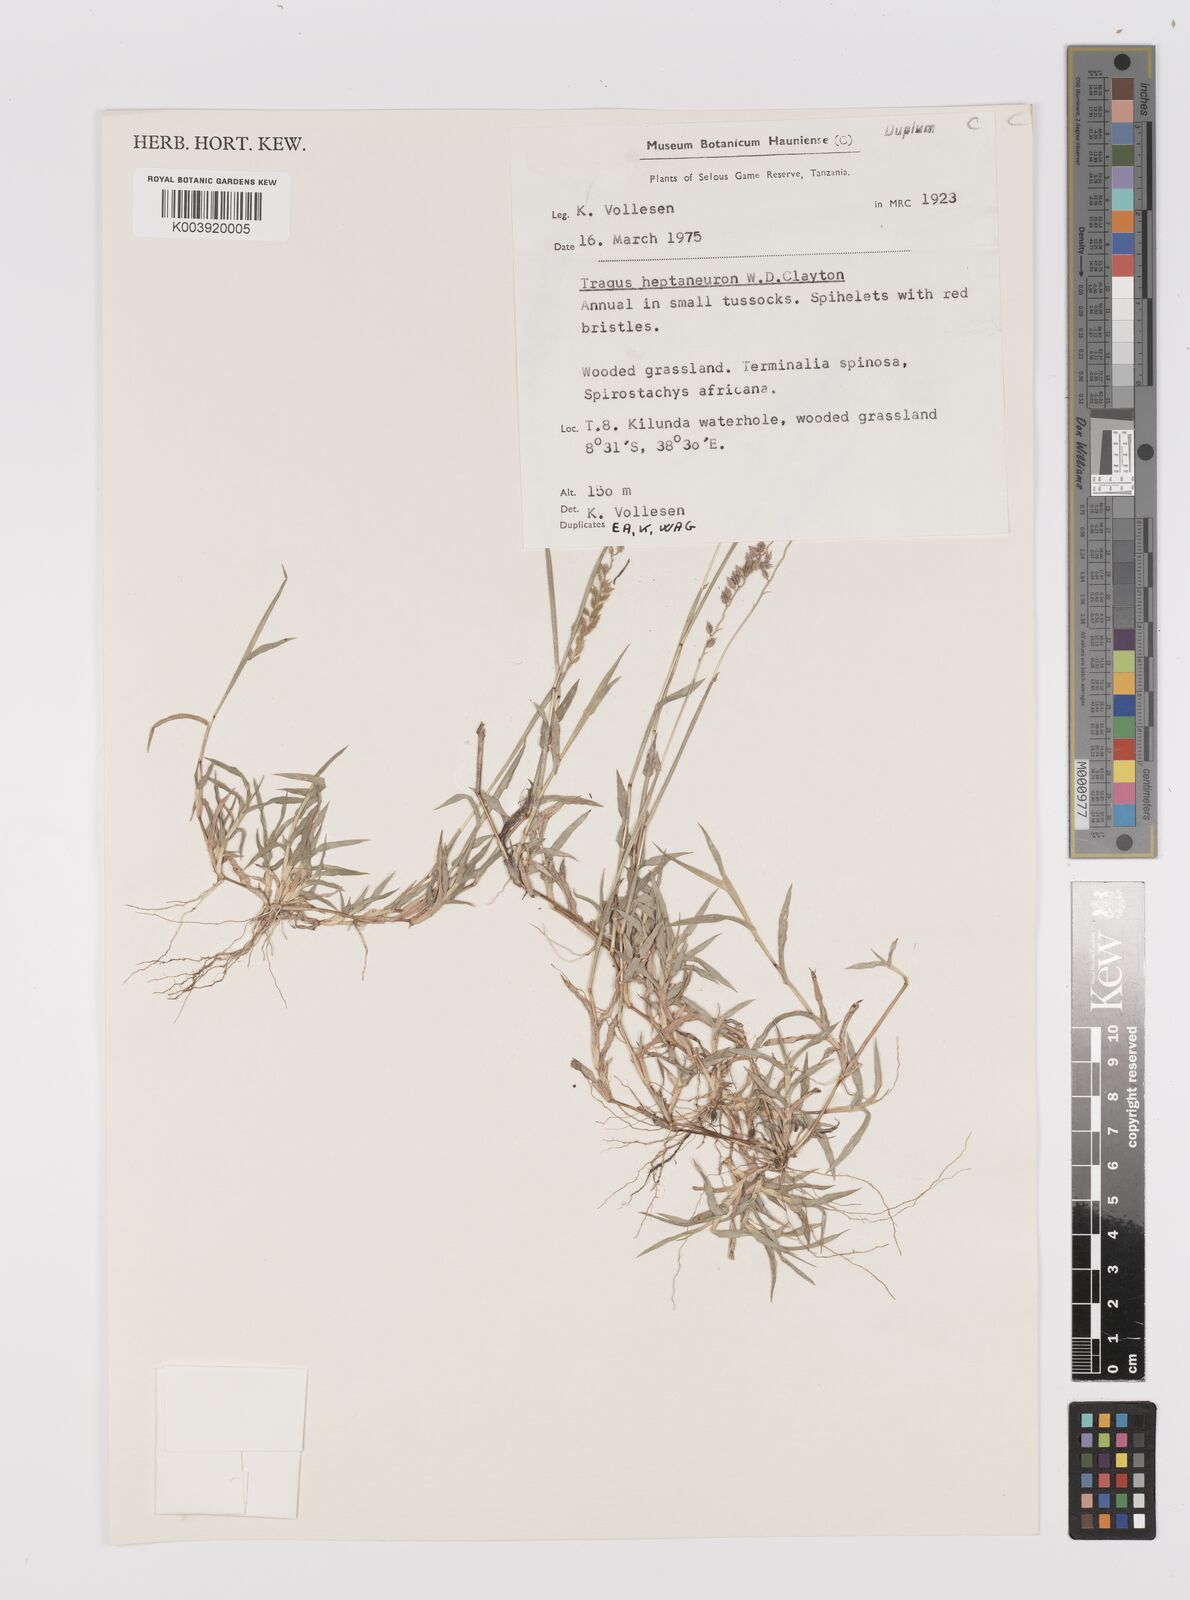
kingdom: Plantae
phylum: Tracheophyta
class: Liliopsida
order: Poales
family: Poaceae
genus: Tragus
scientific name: Tragus heptaneuron
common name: Kenya bur grass
